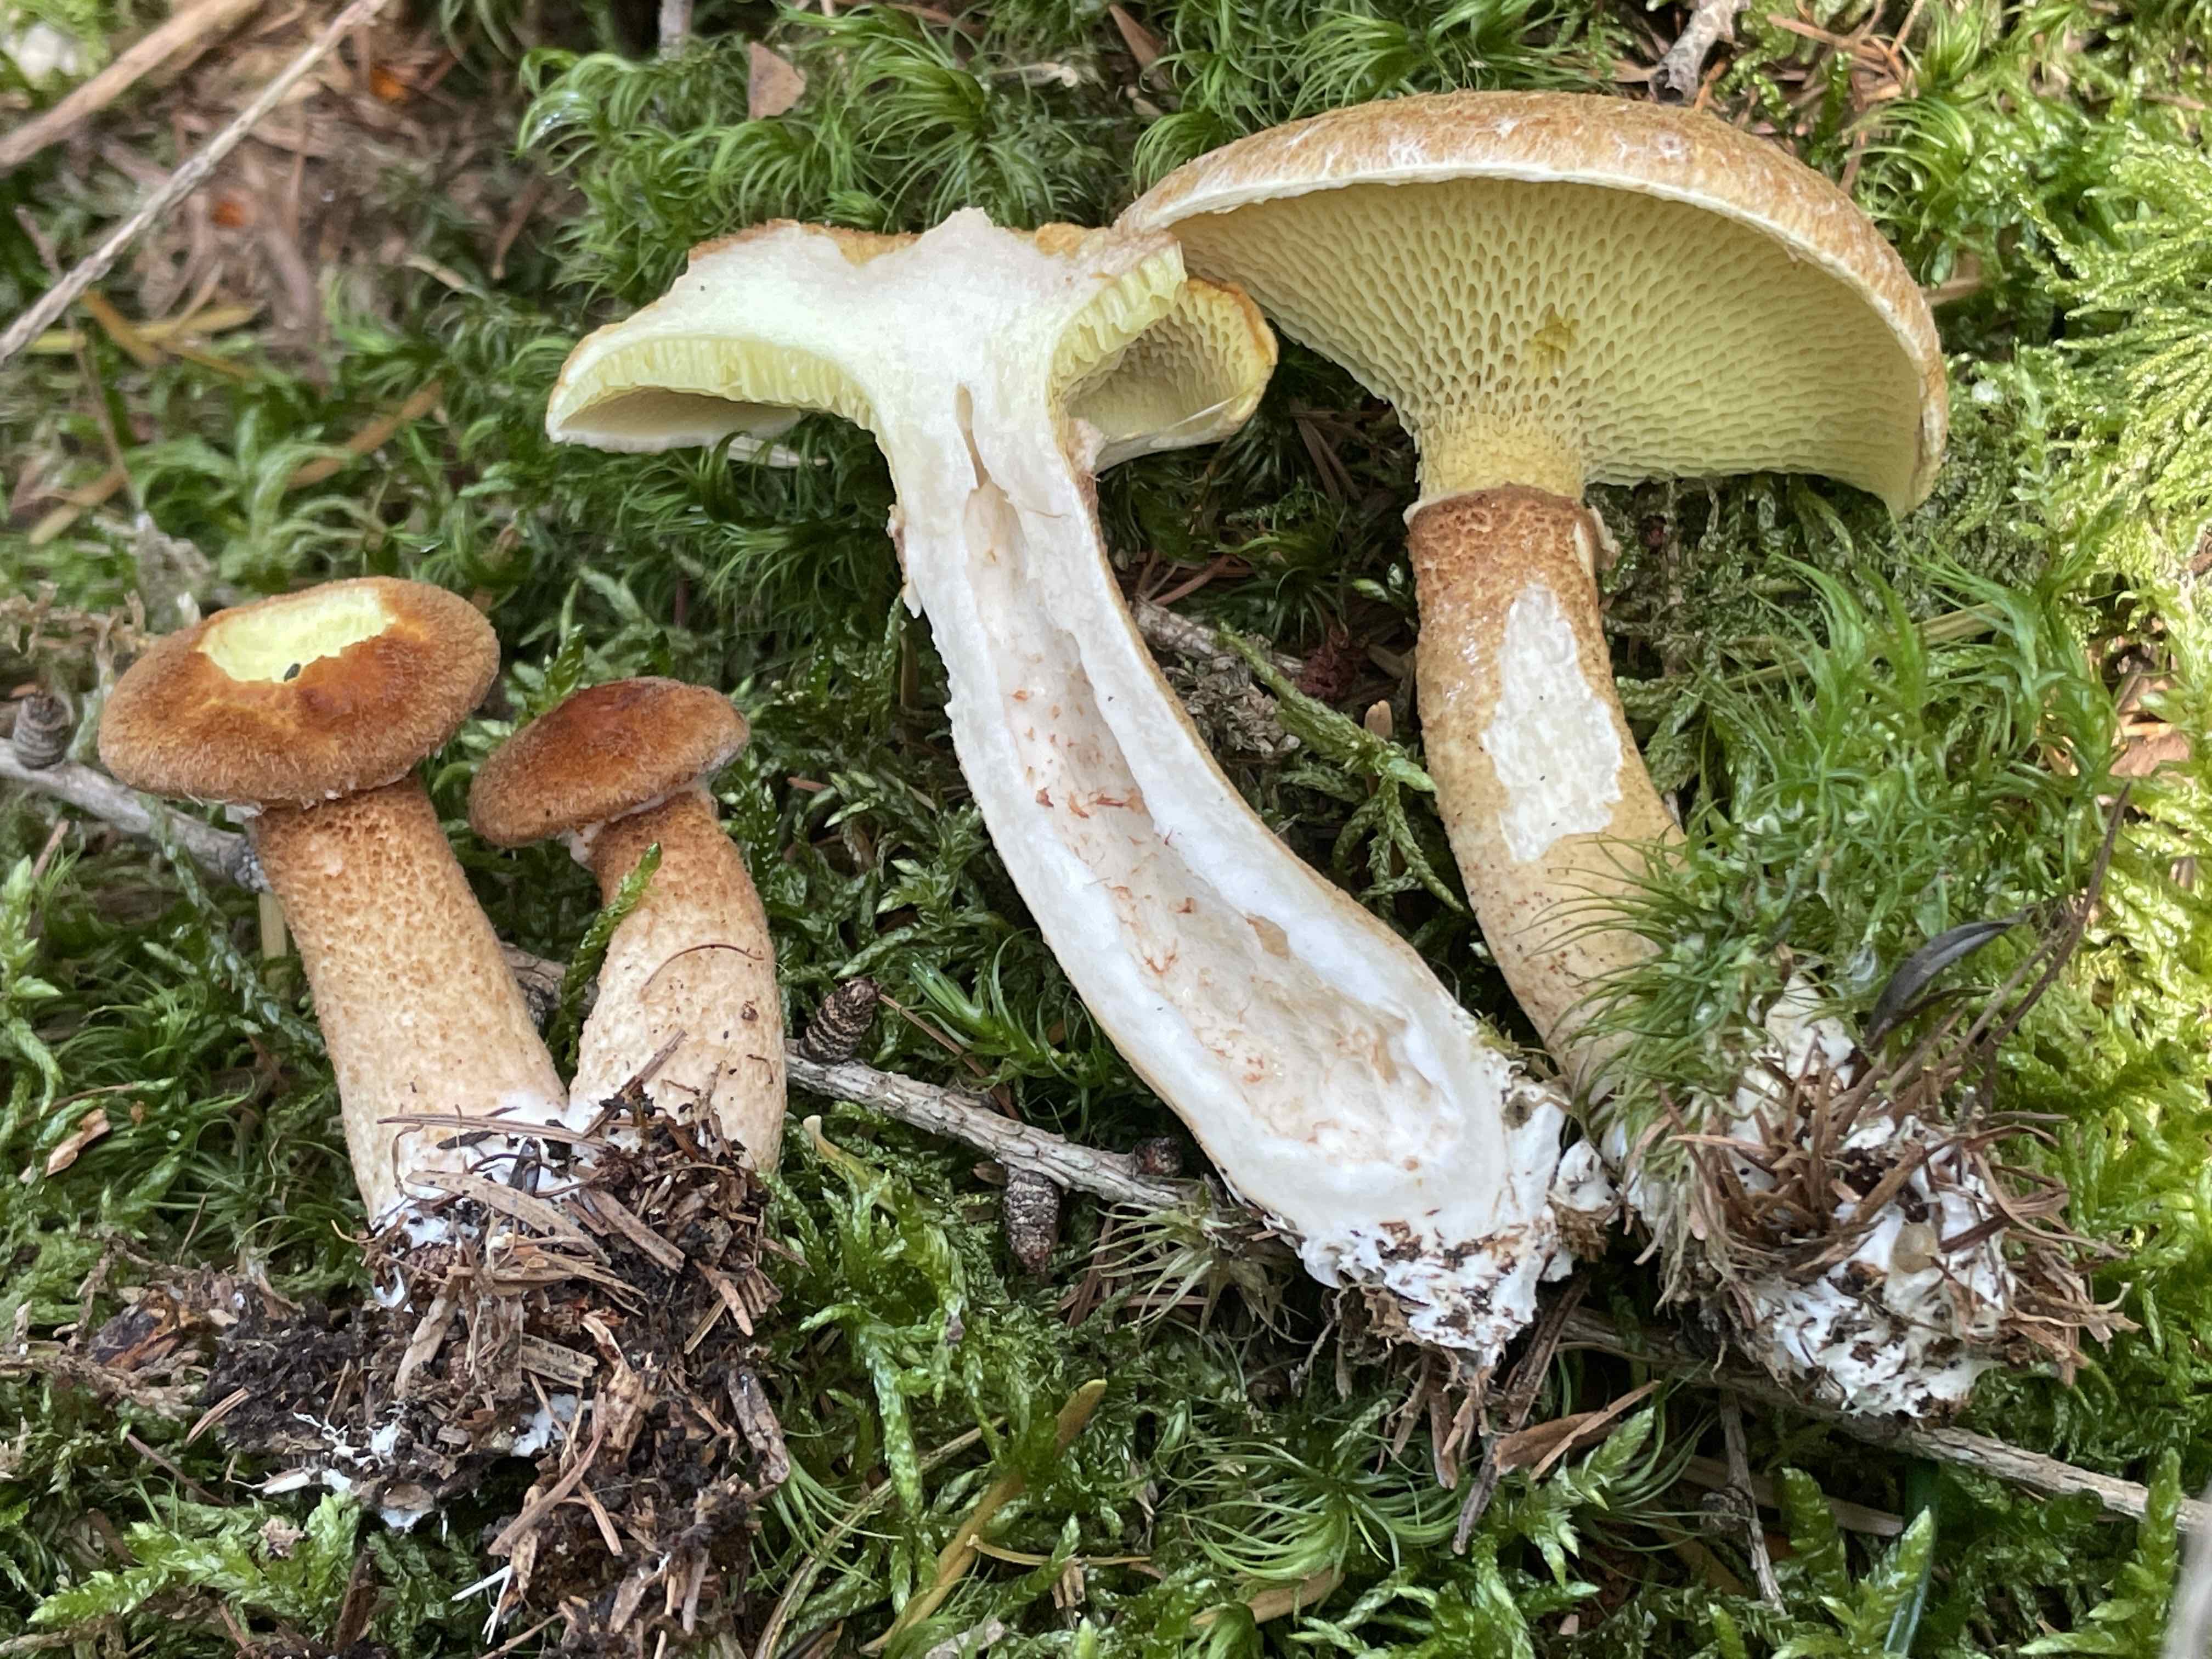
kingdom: Fungi
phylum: Basidiomycota
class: Agaricomycetes
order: Boletales
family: Suillaceae
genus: Suillus
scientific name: Suillus cavipes
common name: hulstokket slimrørhat
